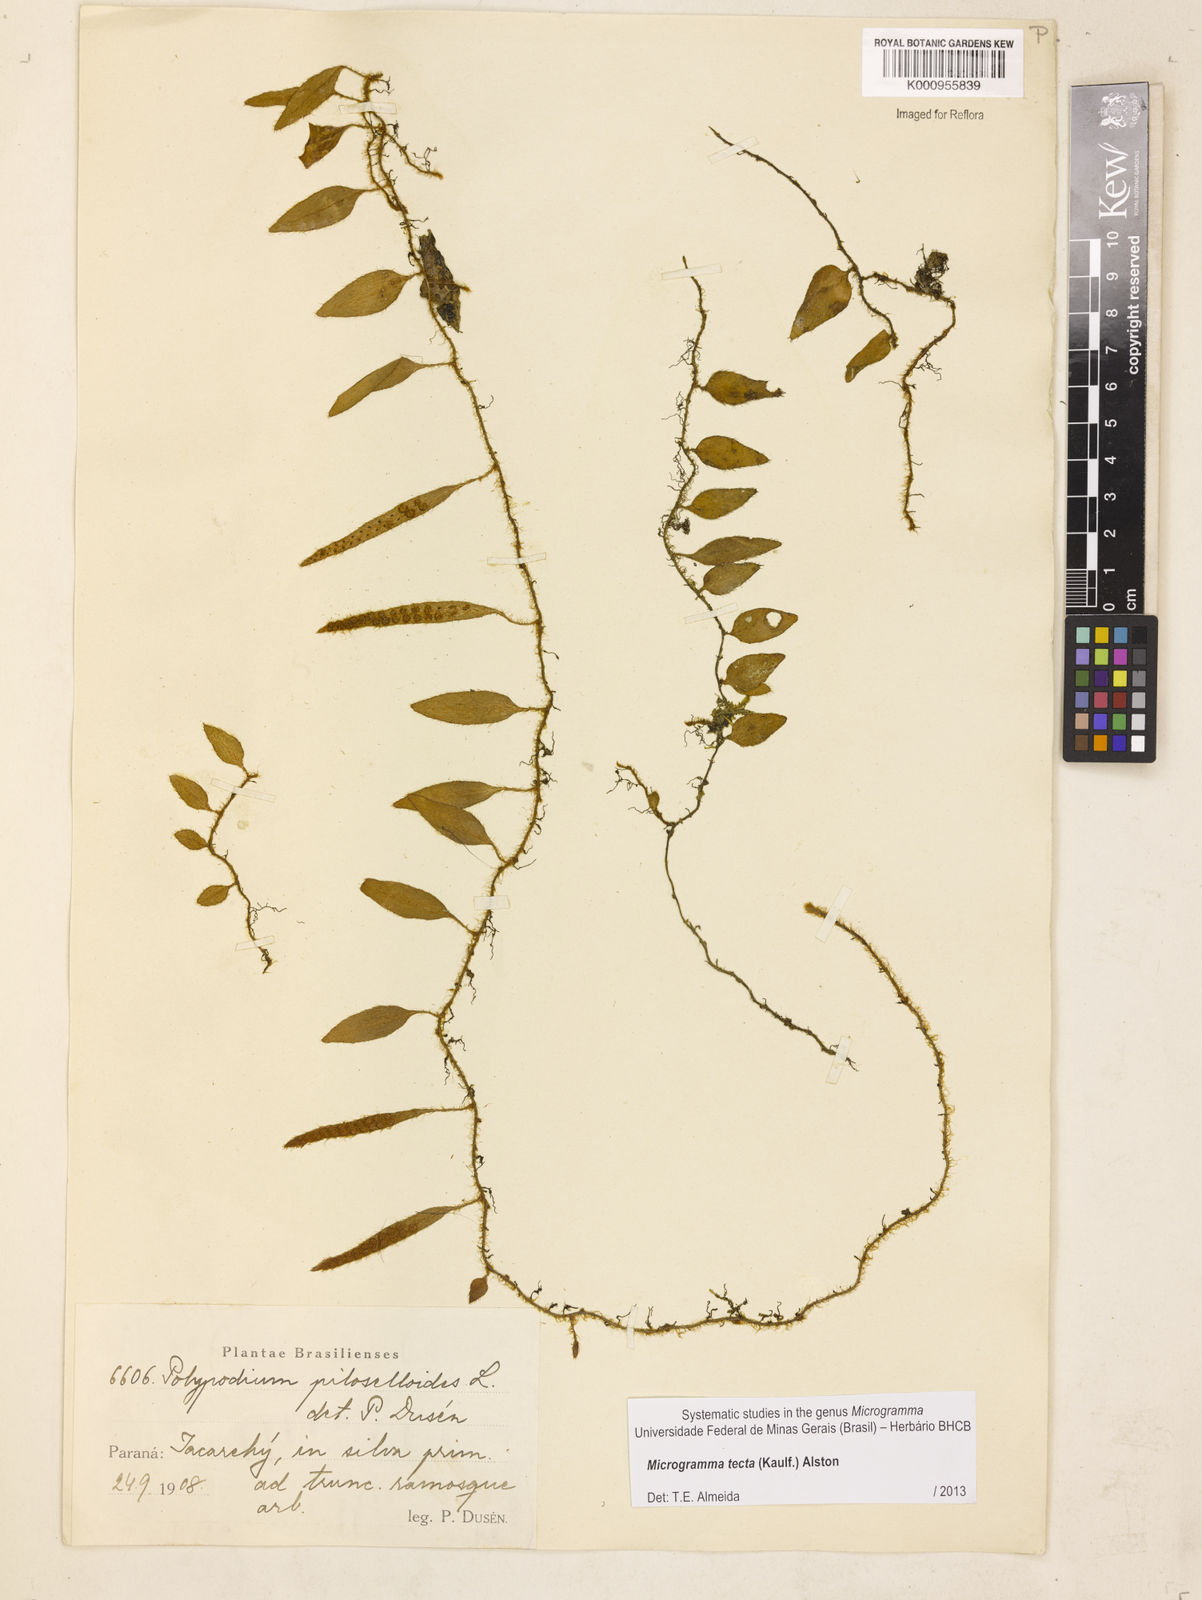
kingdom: Plantae
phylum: Tracheophyta
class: Polypodiopsida
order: Polypodiales
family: Polypodiaceae
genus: Microgramma
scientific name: Microgramma tecta
